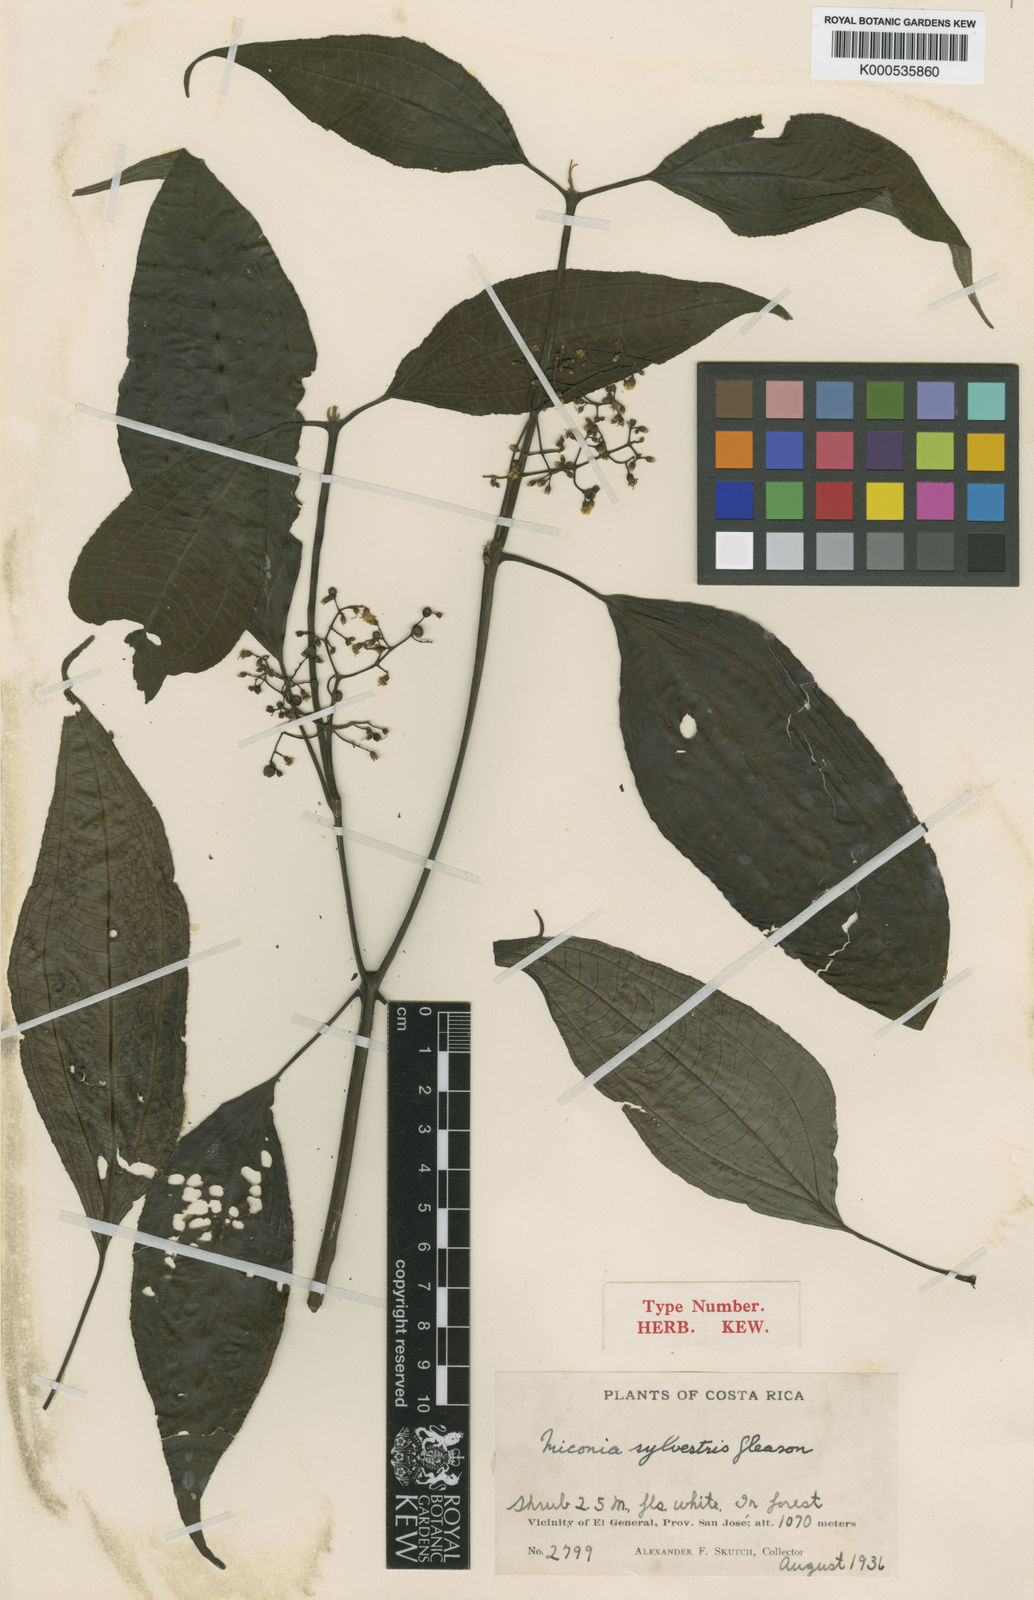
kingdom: Plantae
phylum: Tracheophyta
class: Magnoliopsida
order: Myrtales
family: Melastomataceae
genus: Miconia
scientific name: Miconia centrodesma
